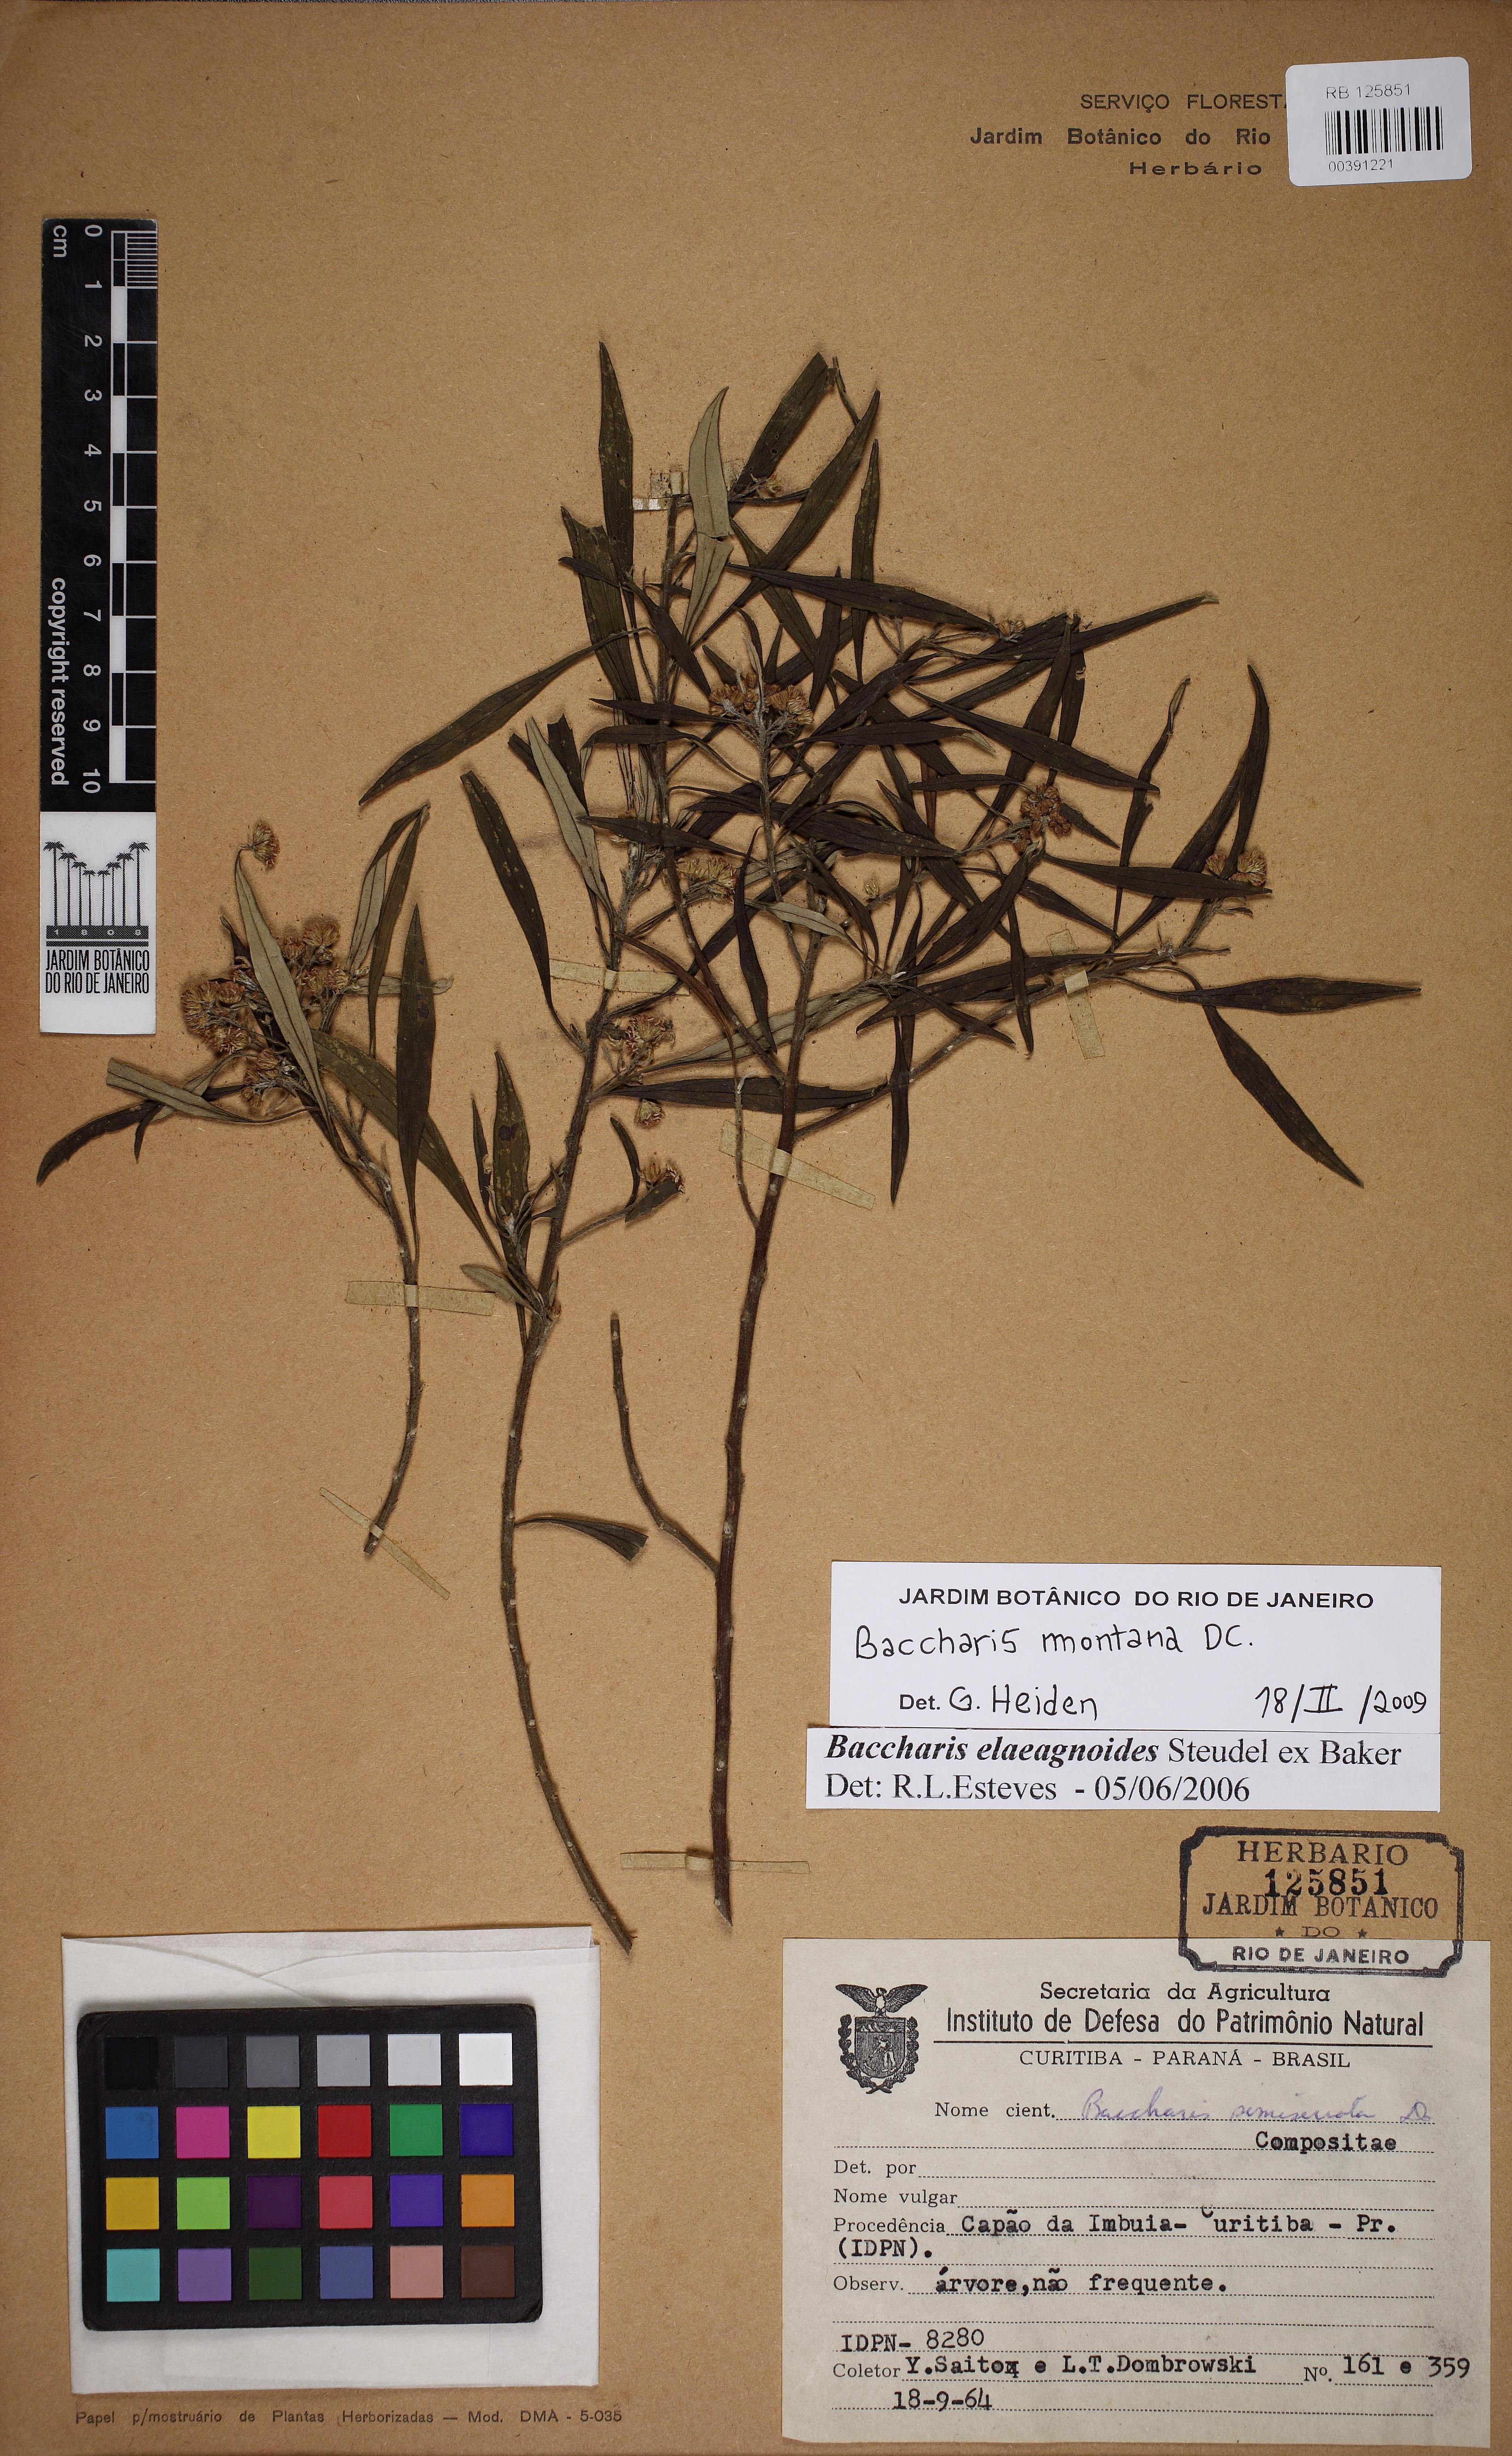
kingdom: Plantae
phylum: Tracheophyta
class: Magnoliopsida
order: Asterales
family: Asteraceae
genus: Baccharis
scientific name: Baccharis montana
